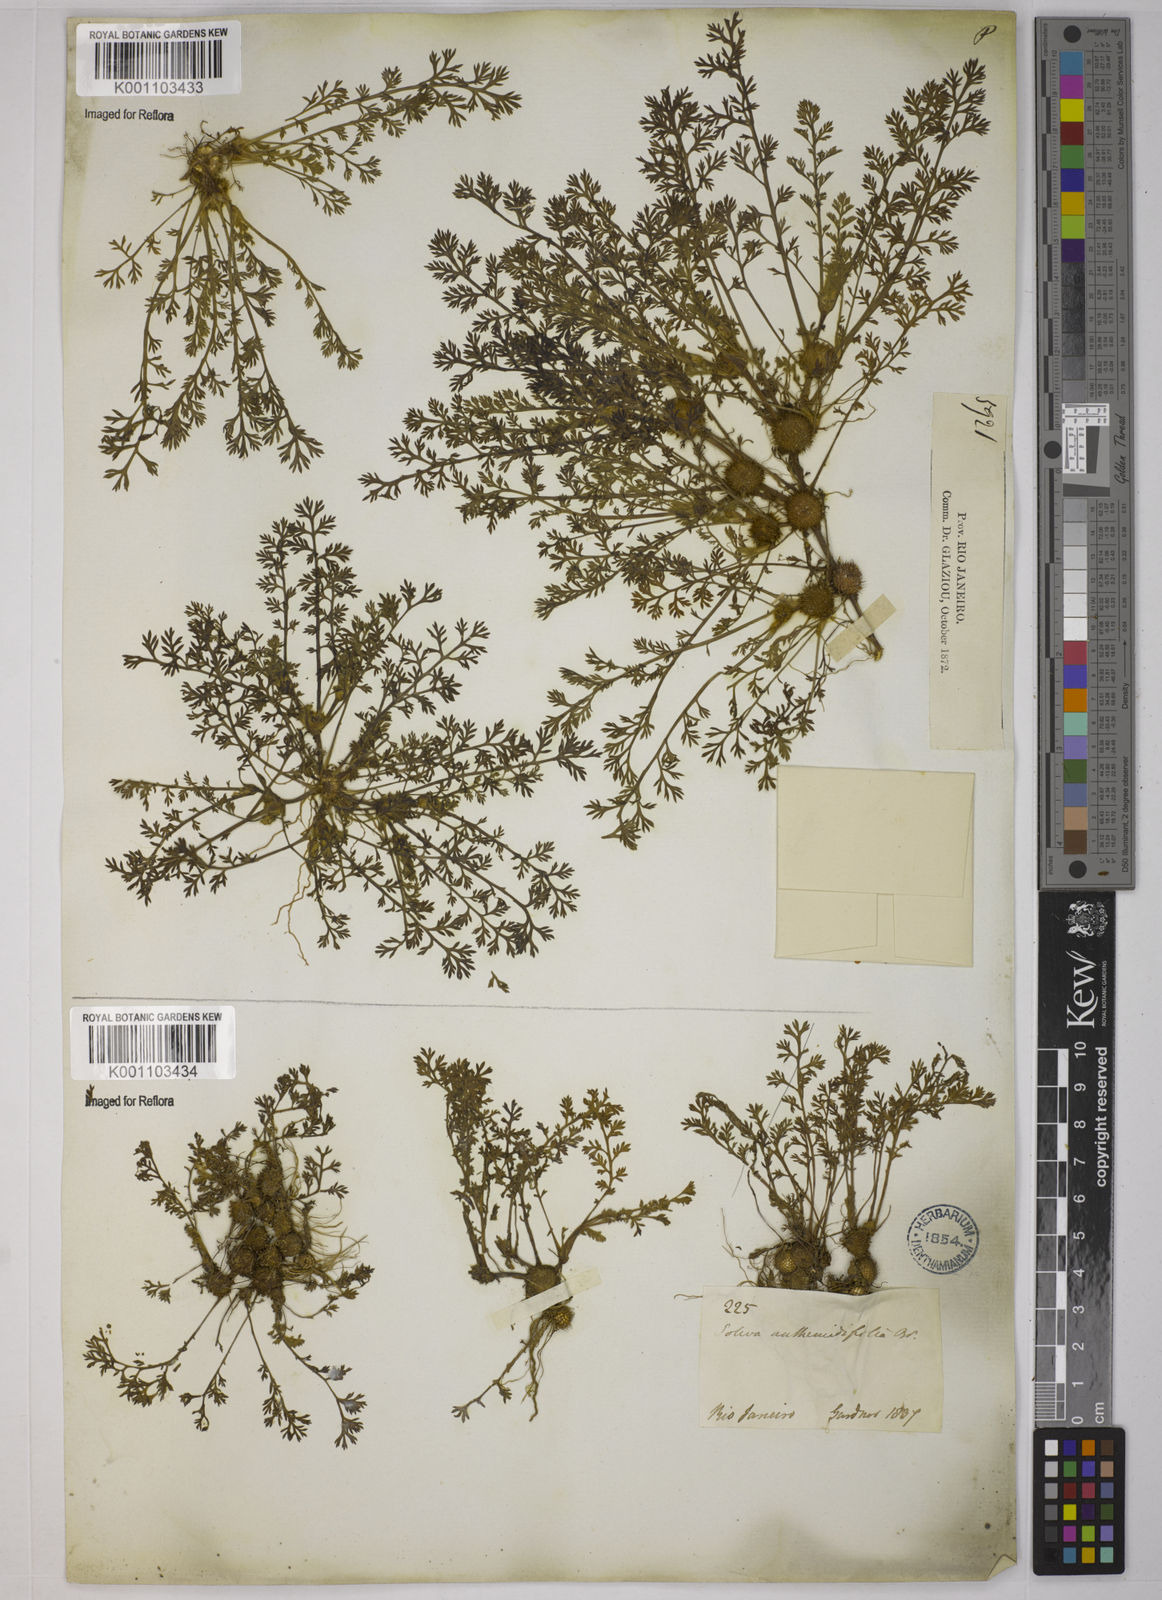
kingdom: Plantae
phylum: Tracheophyta
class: Magnoliopsida
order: Asterales
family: Asteraceae
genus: Soliva
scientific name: Soliva
